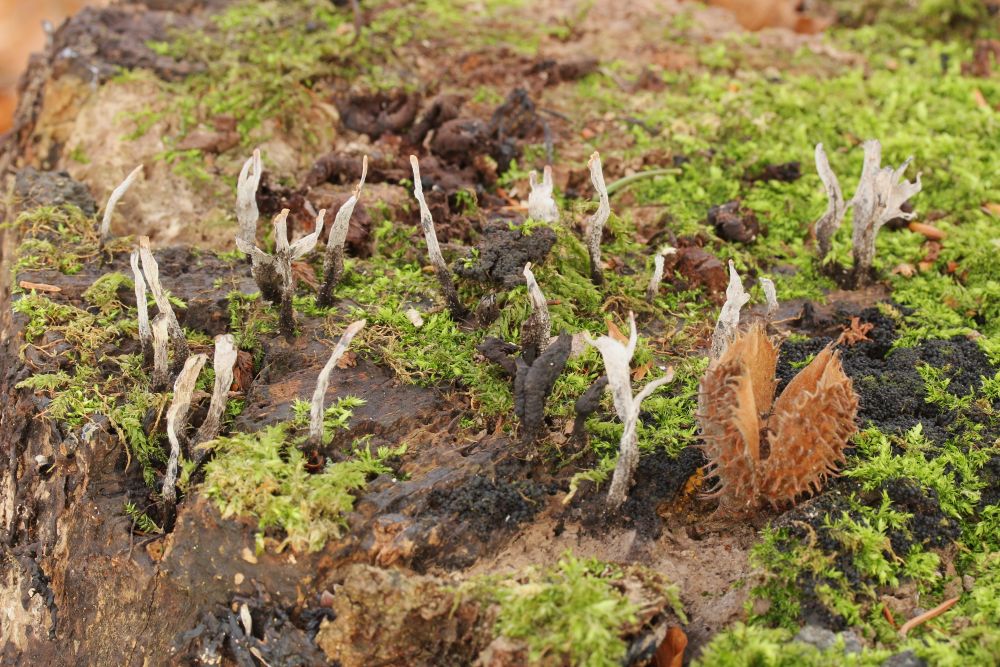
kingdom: Fungi
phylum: Ascomycota
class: Sordariomycetes
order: Xylariales
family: Xylariaceae
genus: Xylaria
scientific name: Xylaria hypoxylon
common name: grenet stødsvamp
